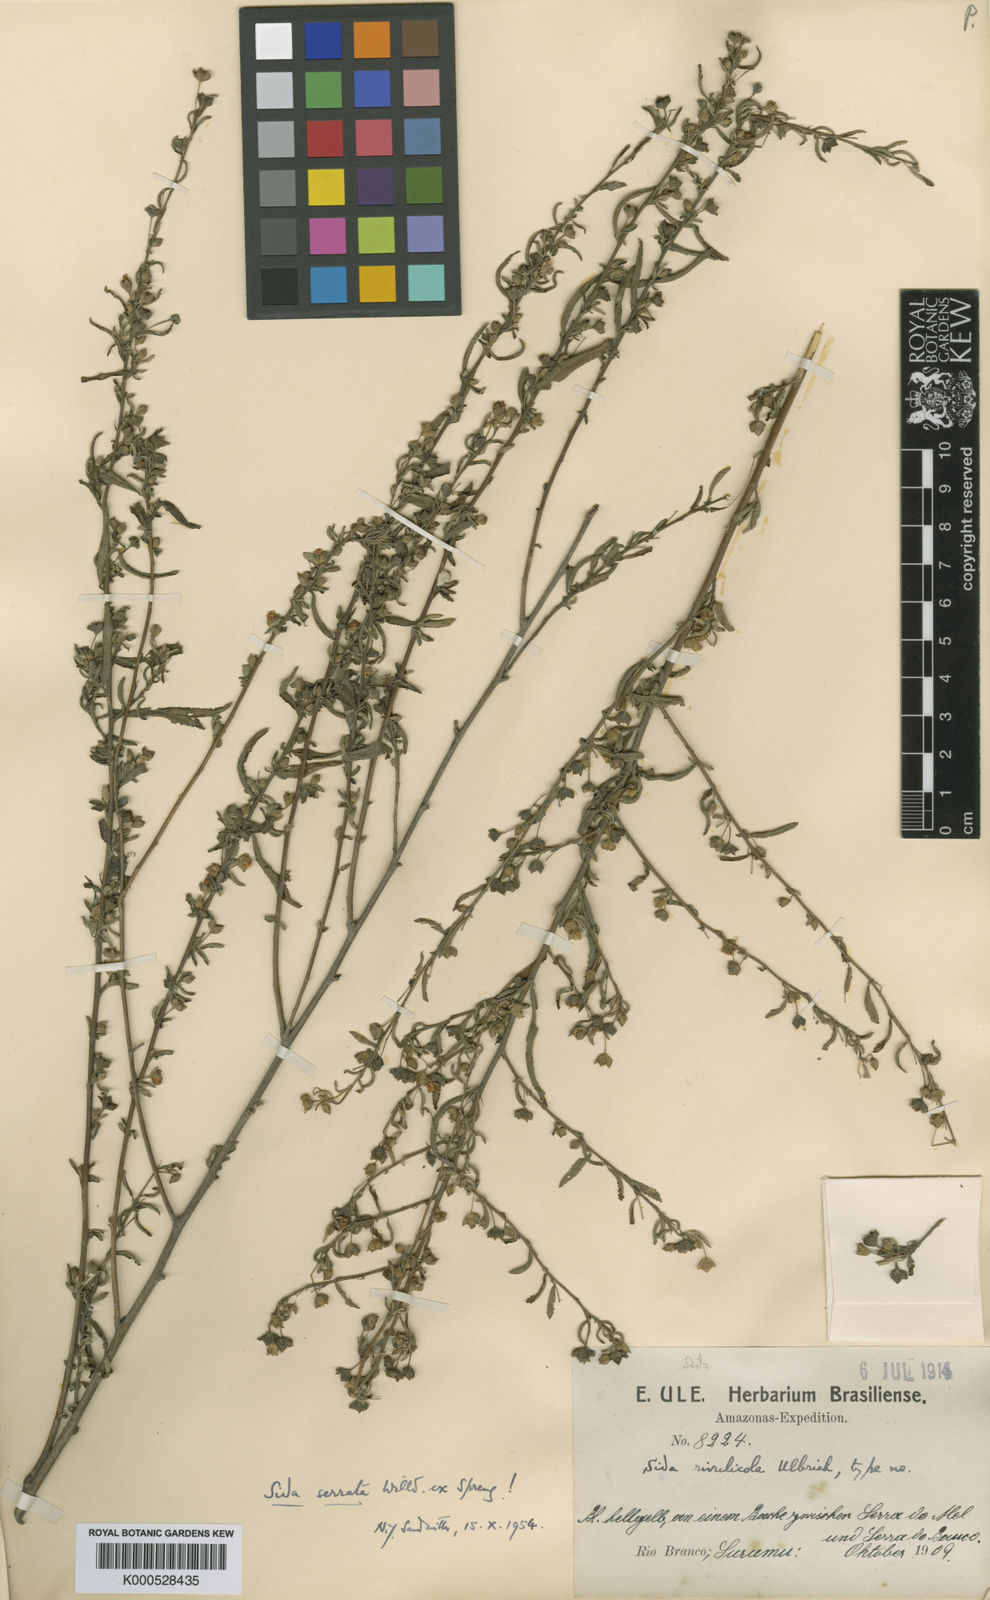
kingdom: Plantae
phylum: Tracheophyta
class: Magnoliopsida
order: Malvales
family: Malvaceae
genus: Sida
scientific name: Sida serrata
